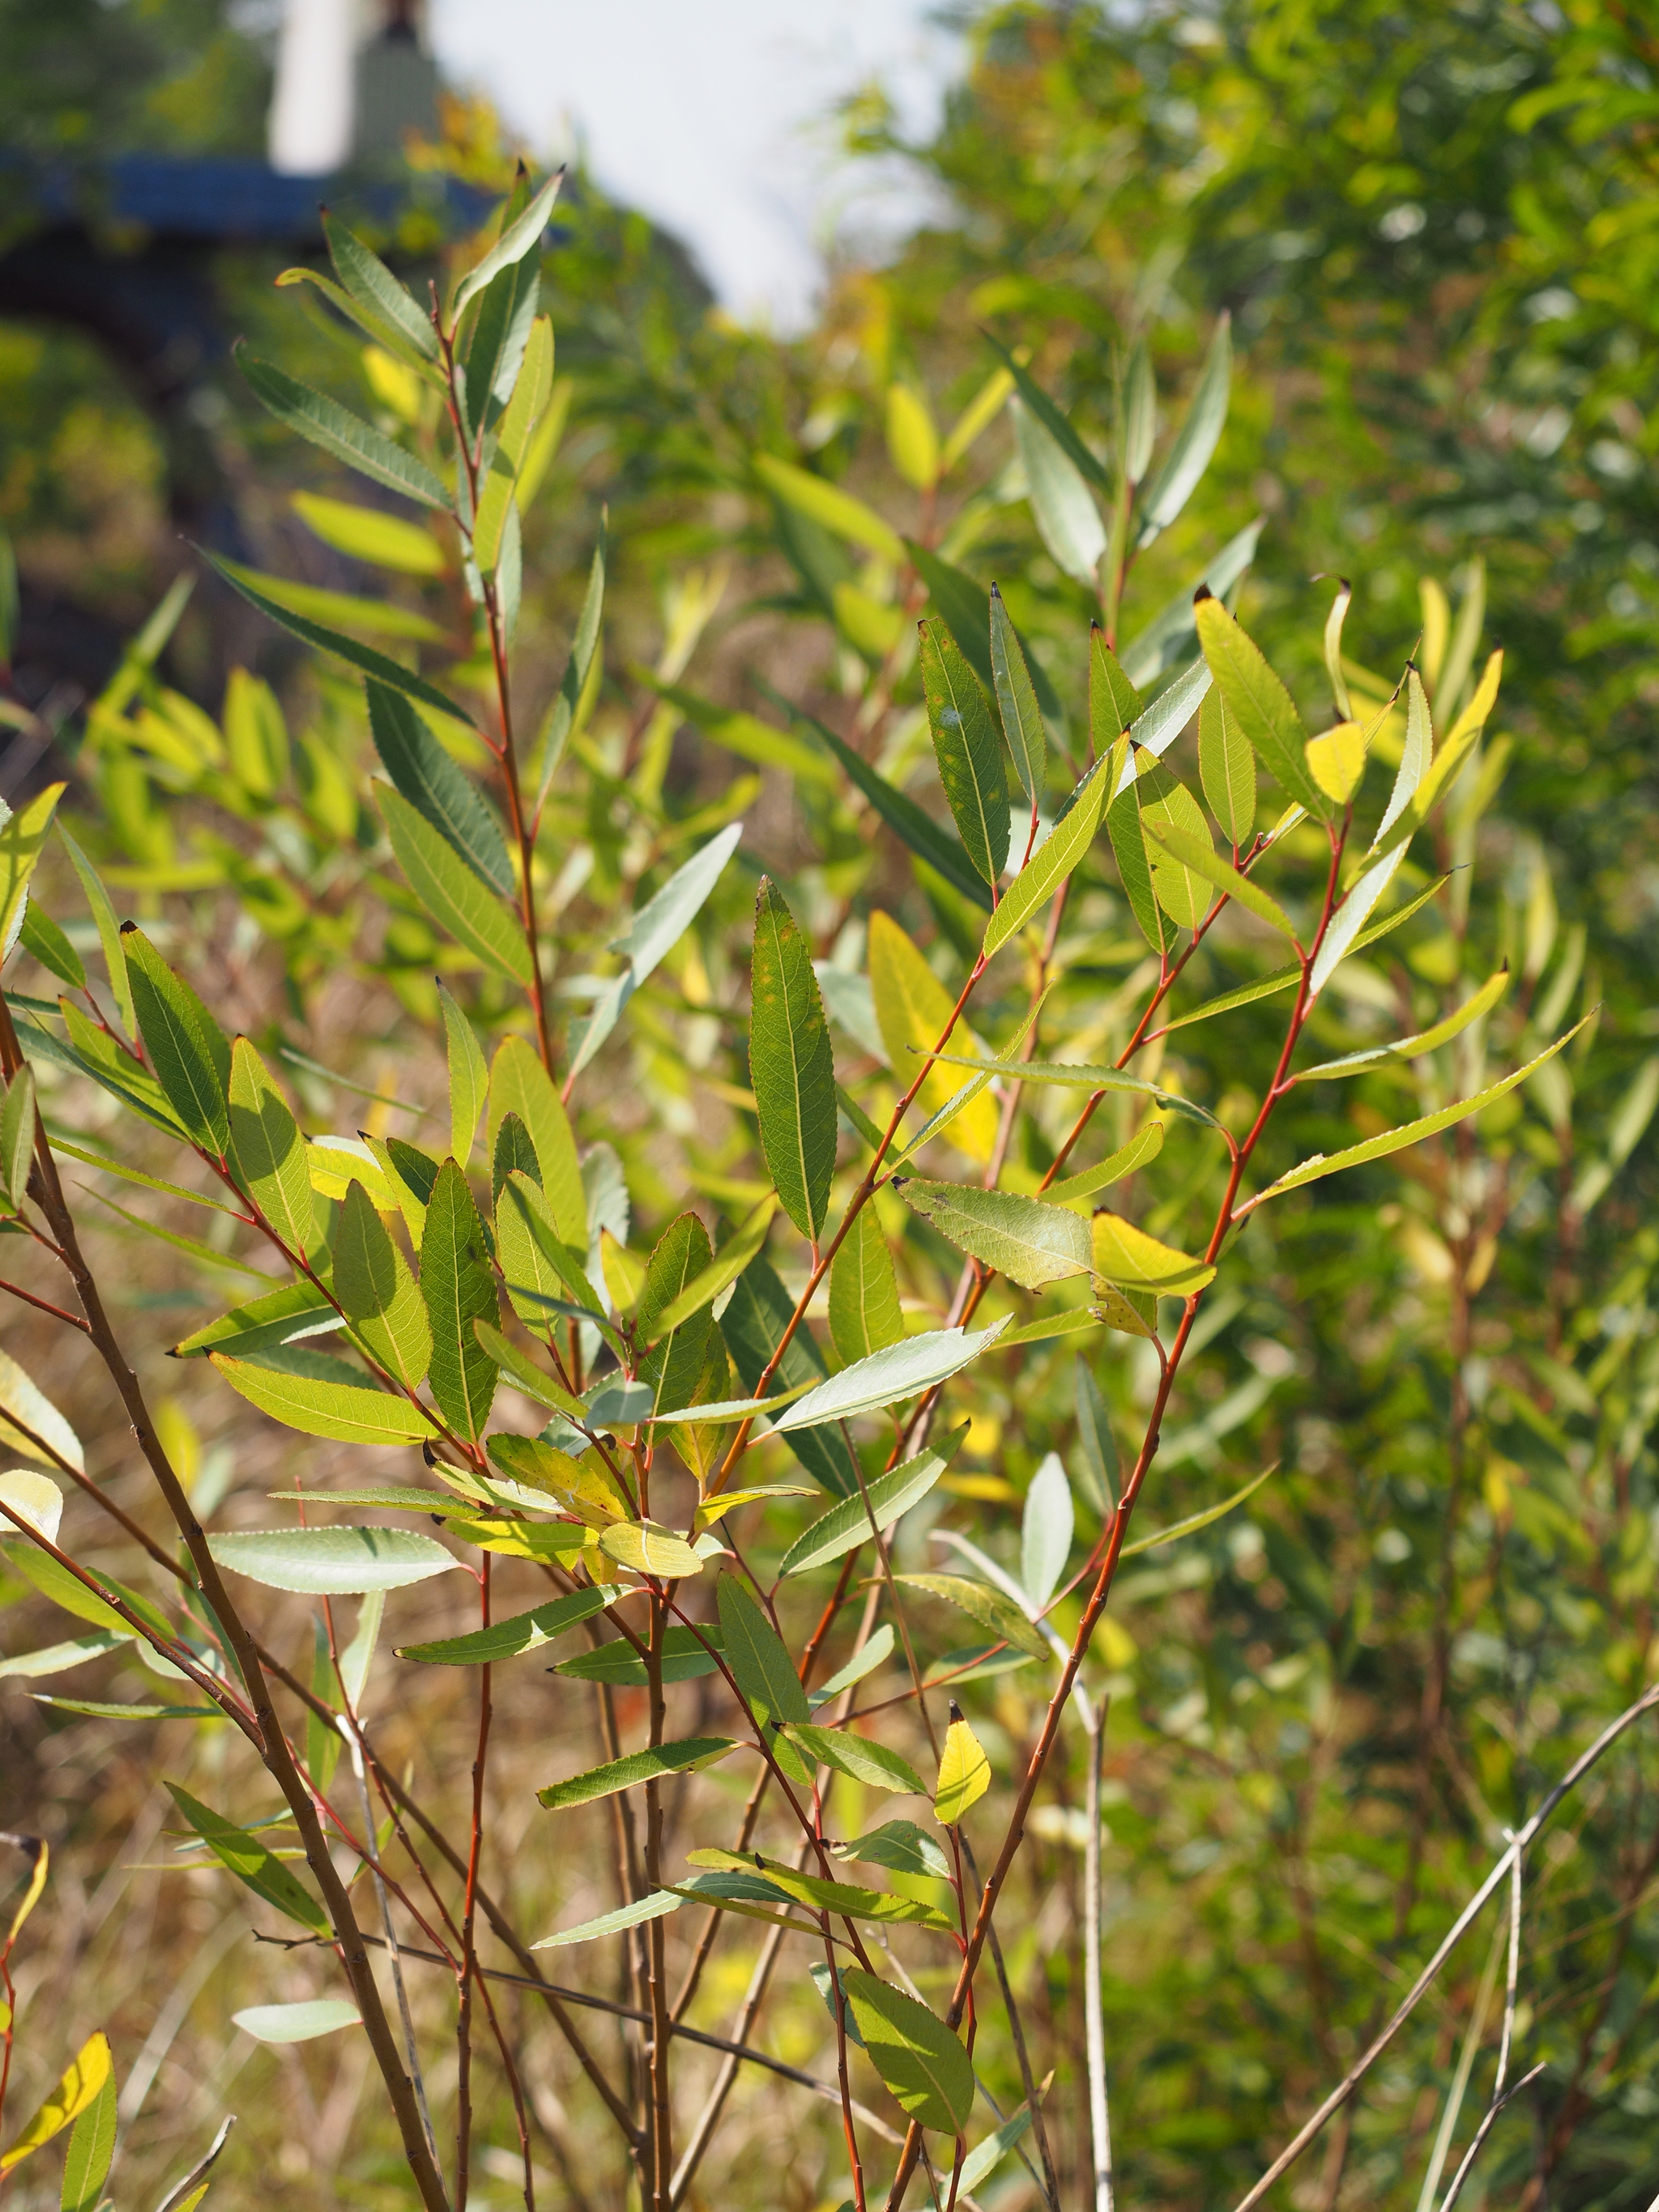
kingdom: Plantae
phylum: Tracheophyta
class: Magnoliopsida
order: Malpighiales
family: Salicaceae
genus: Salix
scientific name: Salix warburgii
